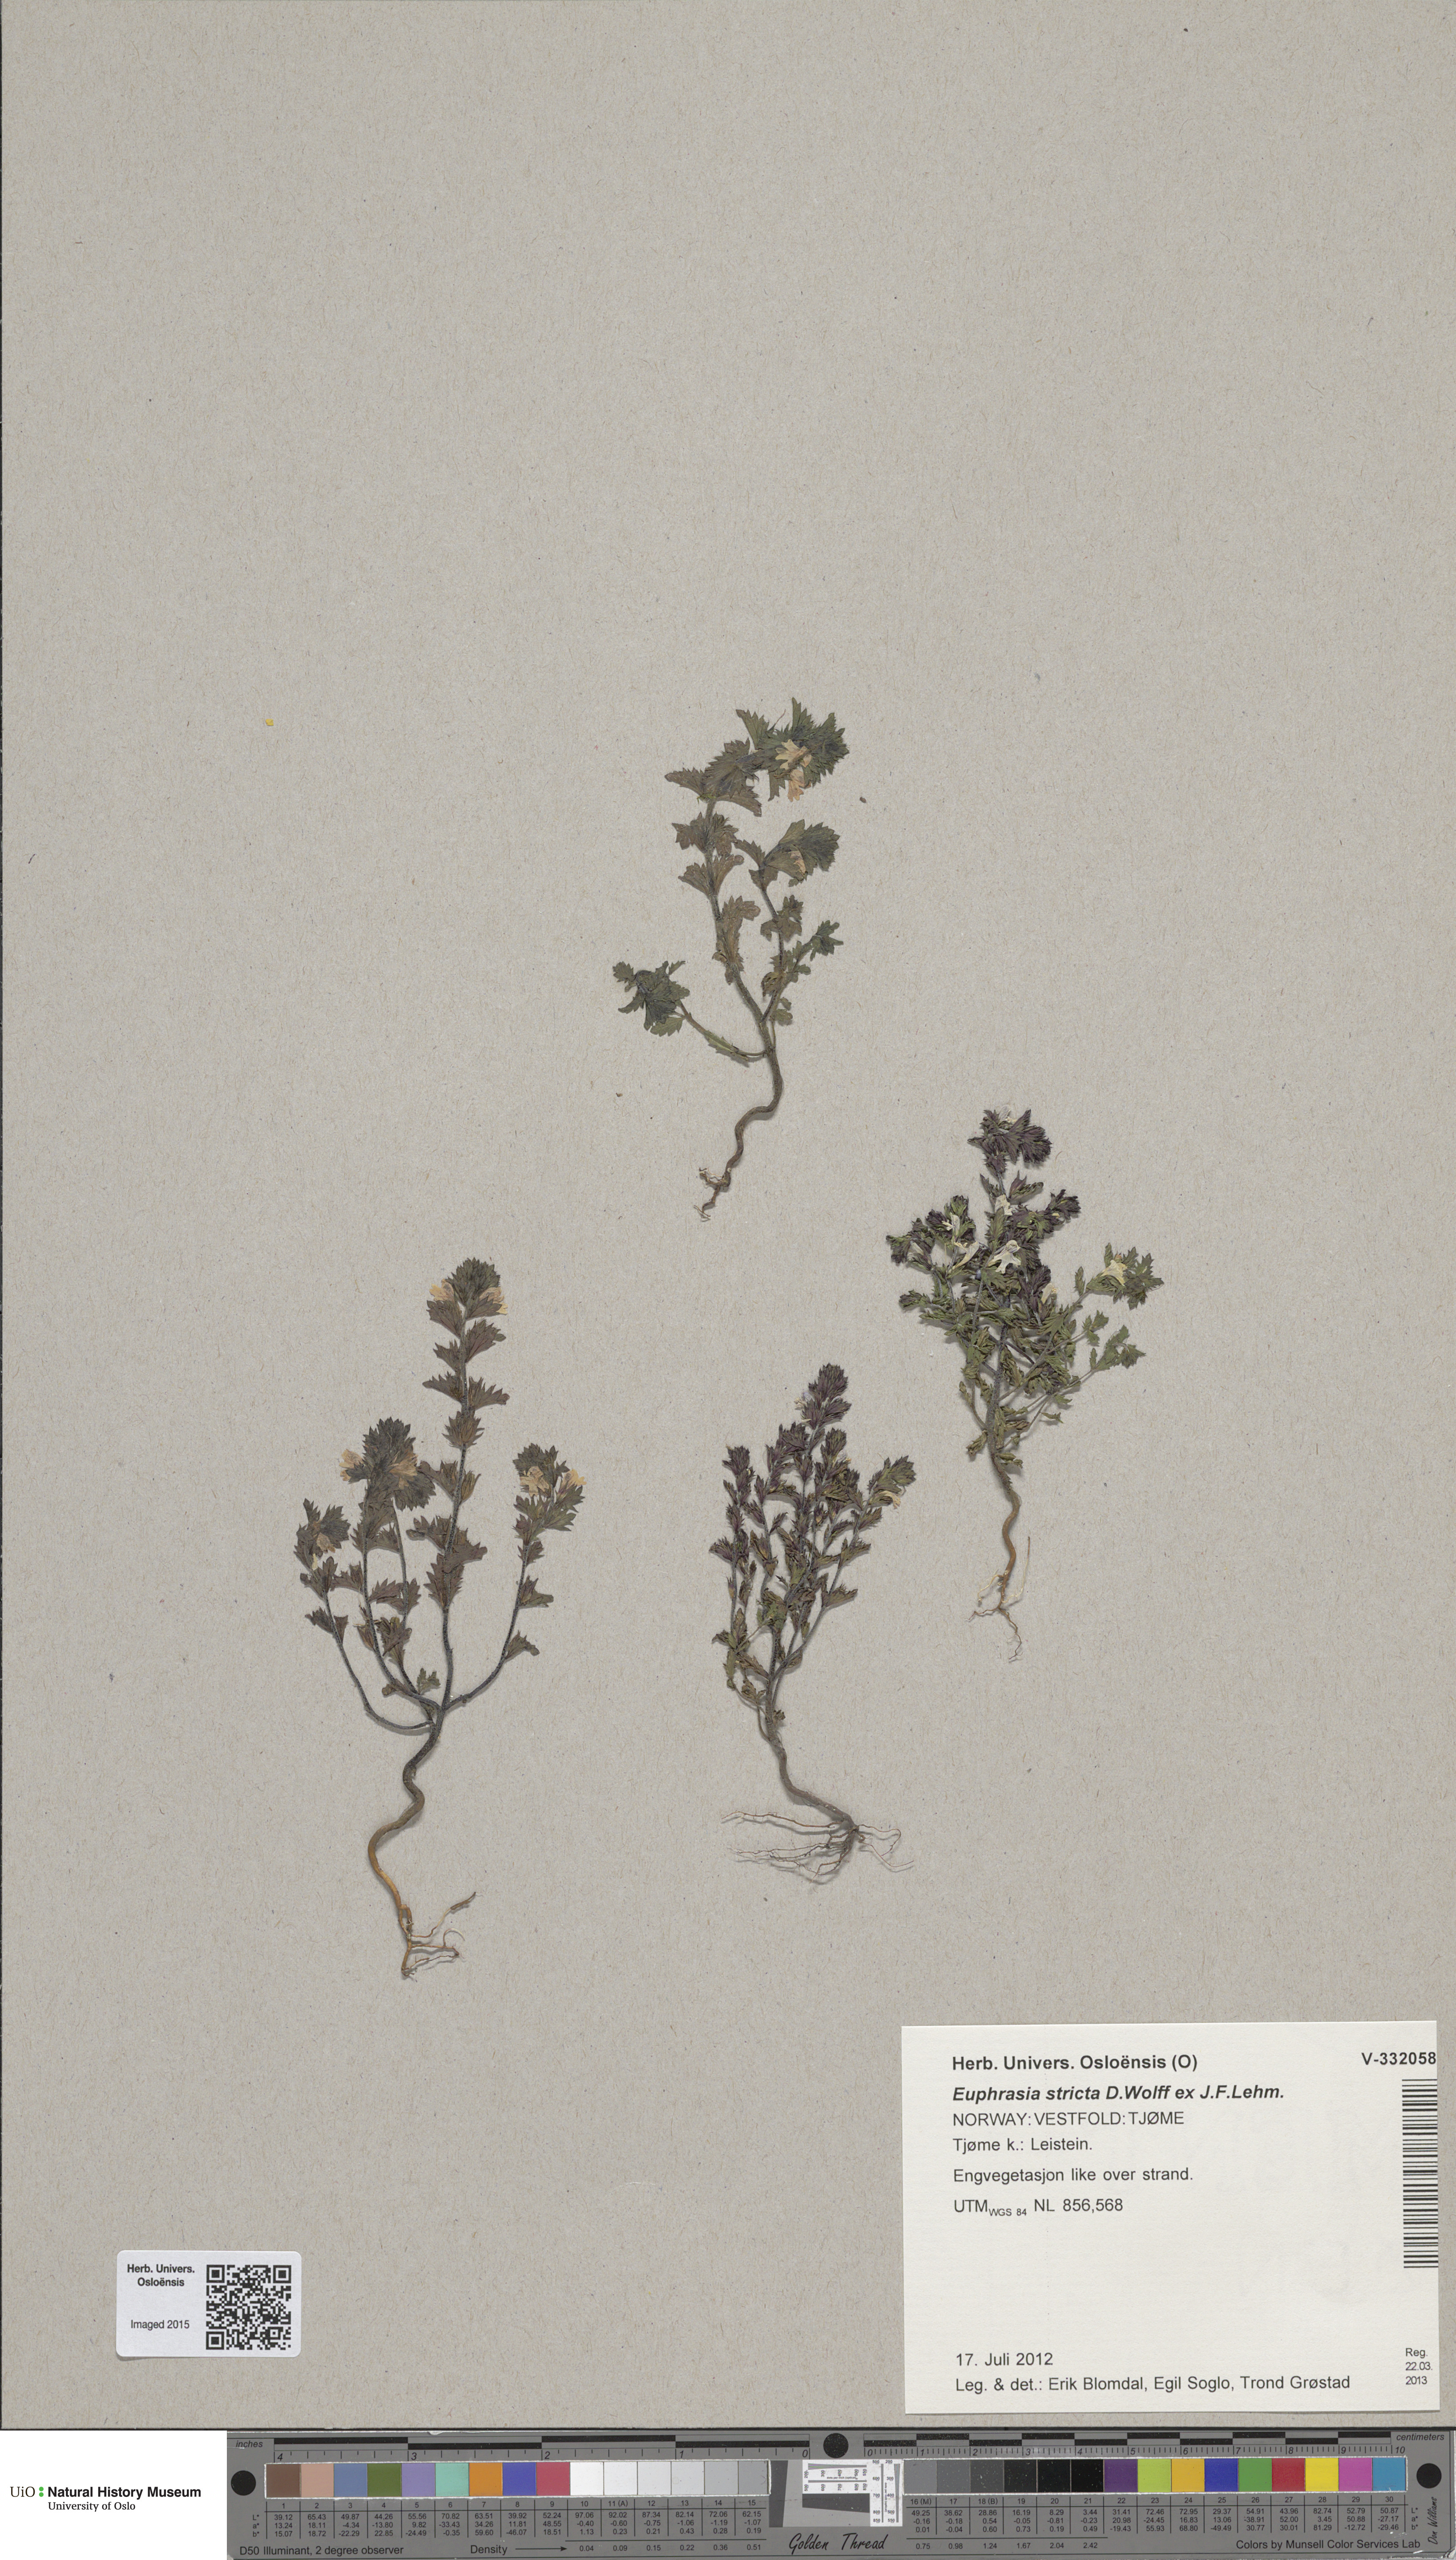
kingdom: Plantae
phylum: Tracheophyta
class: Magnoliopsida
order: Lamiales
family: Orobanchaceae
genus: Euphrasia
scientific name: Euphrasia stricta
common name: Drug eyebright
